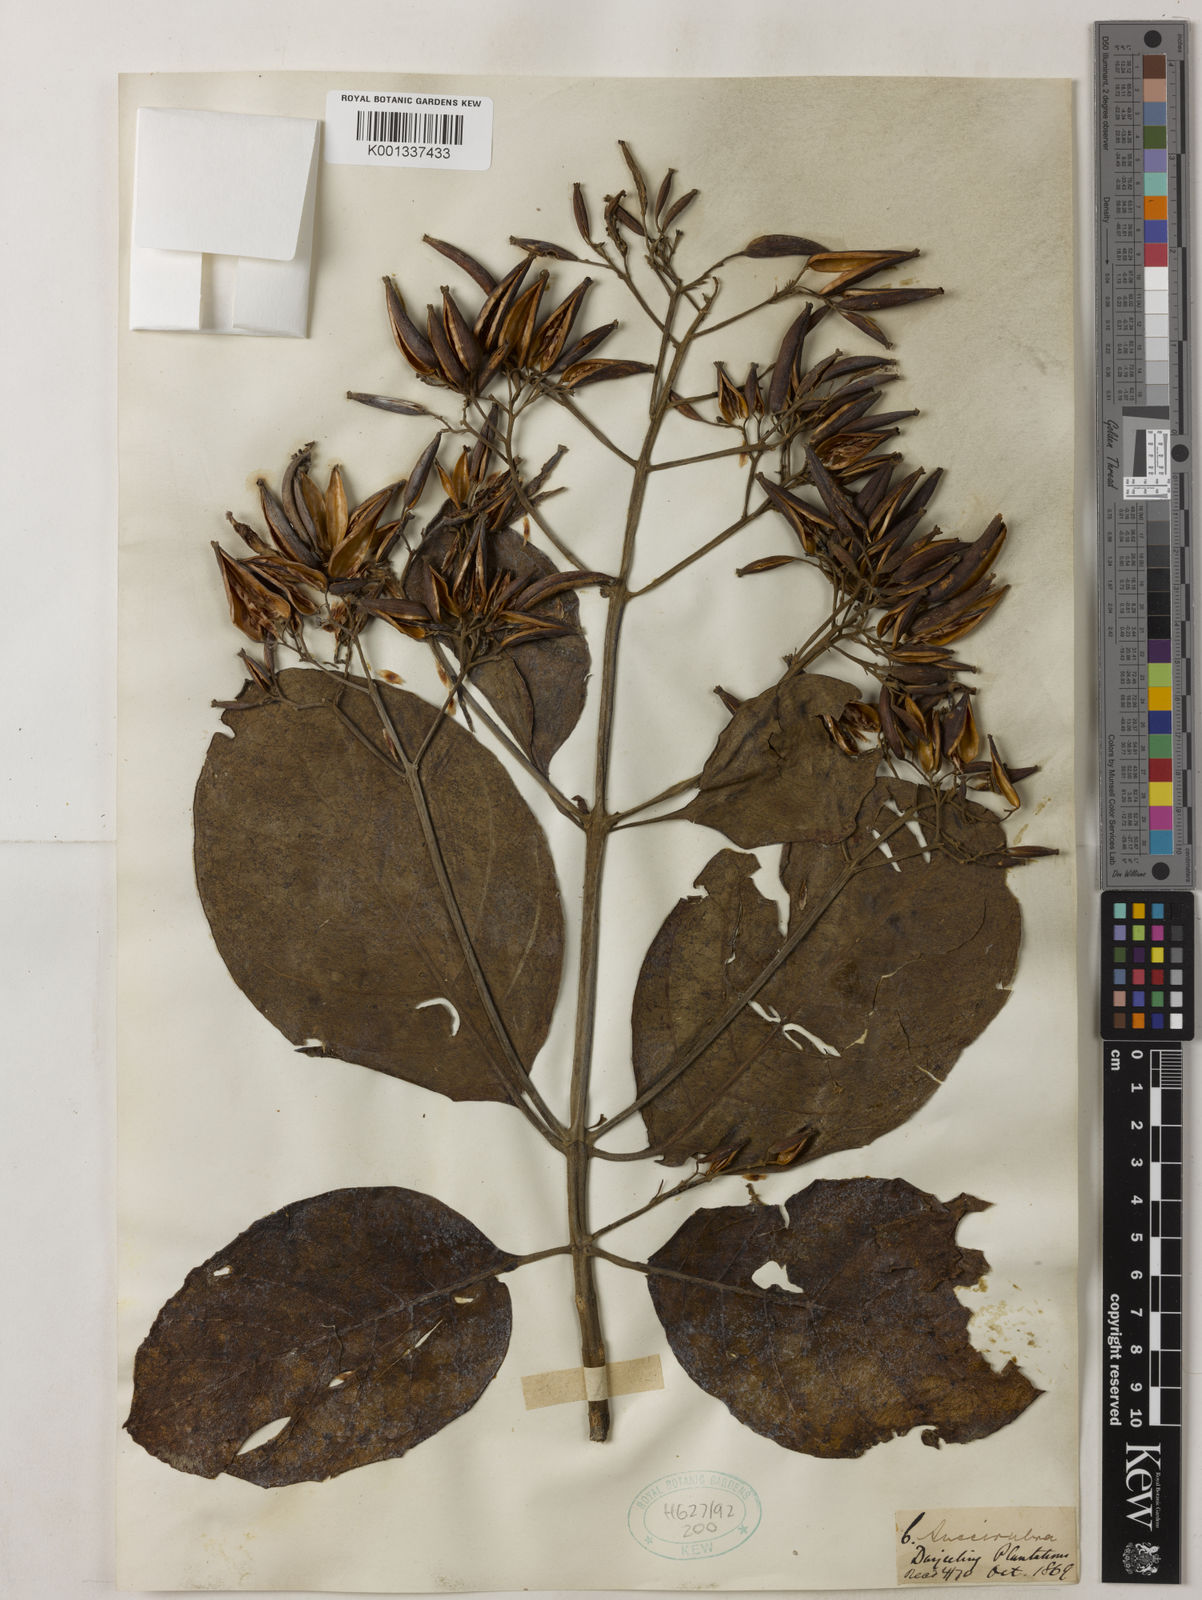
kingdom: Plantae
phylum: Tracheophyta
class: Magnoliopsida
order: Gentianales
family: Rubiaceae
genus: Cinchona
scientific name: Cinchona pubescens
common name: Quinine
